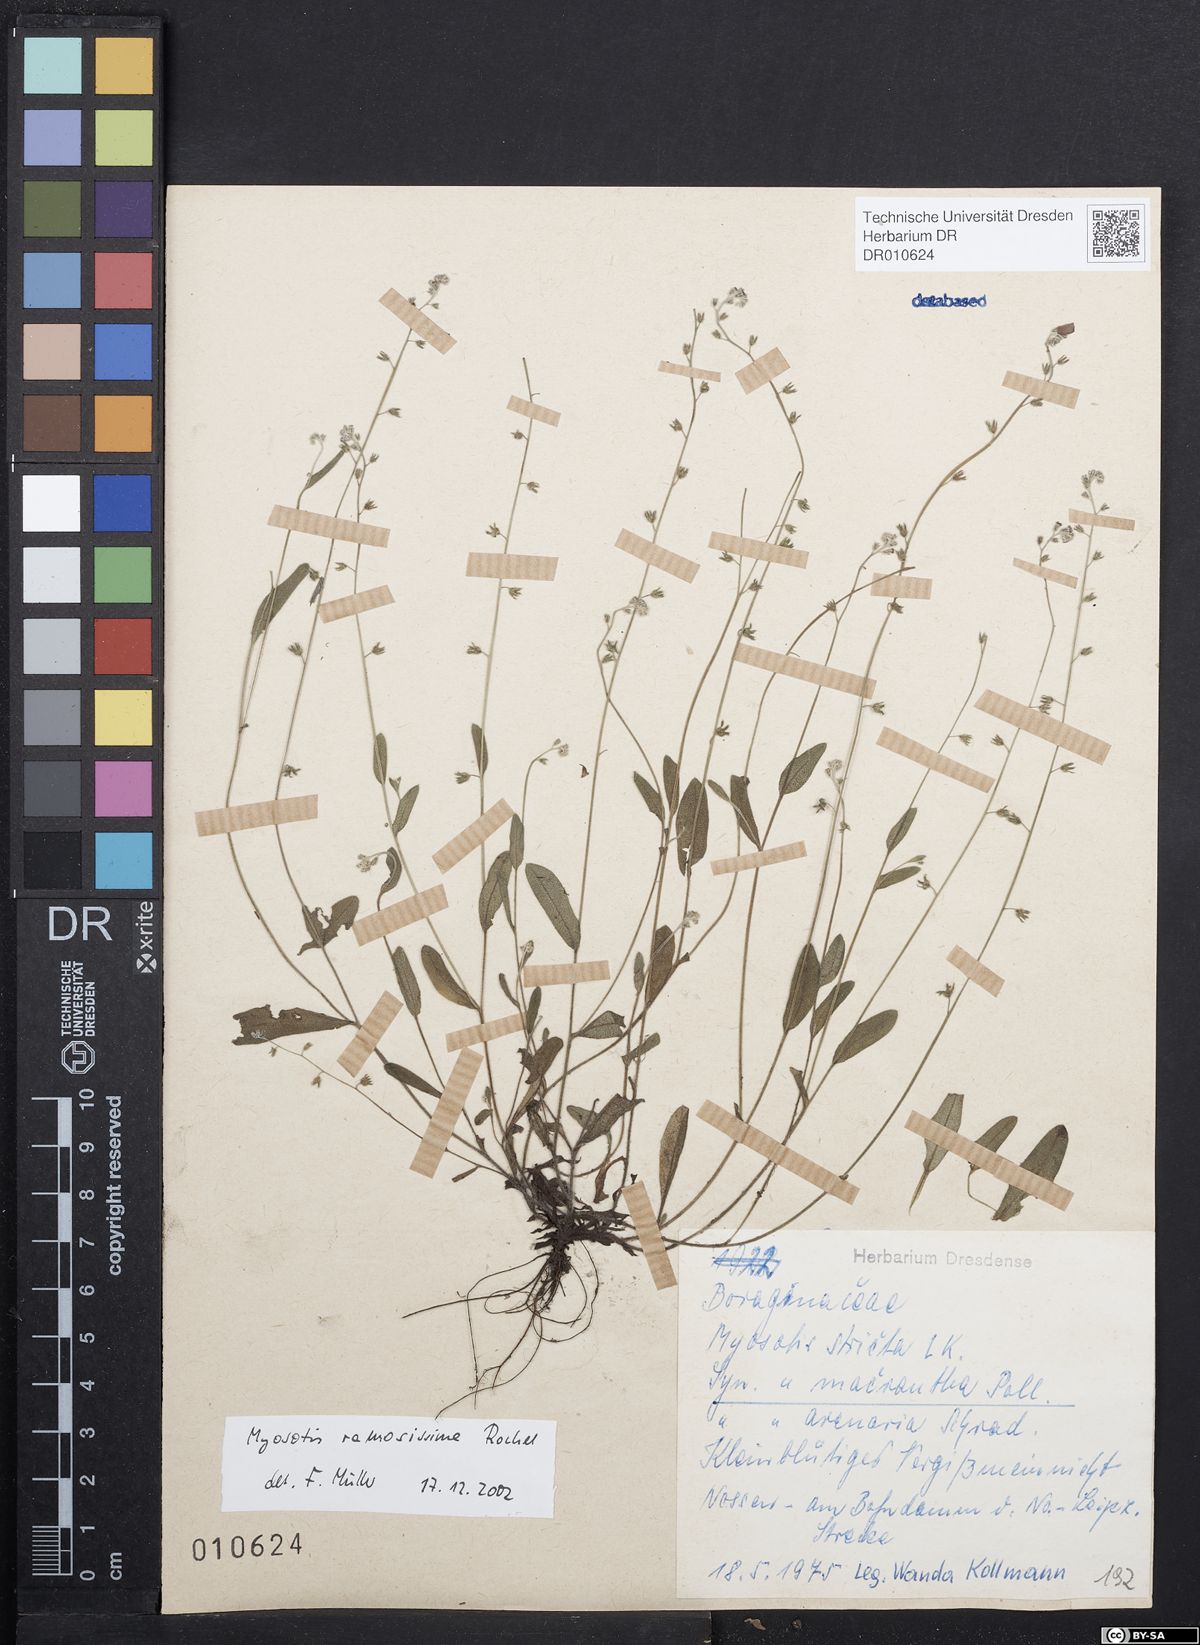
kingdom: Plantae
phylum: Tracheophyta
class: Magnoliopsida
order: Boraginales
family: Boraginaceae
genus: Myosotis
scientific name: Myosotis ramosissima
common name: Early forget-me-not
